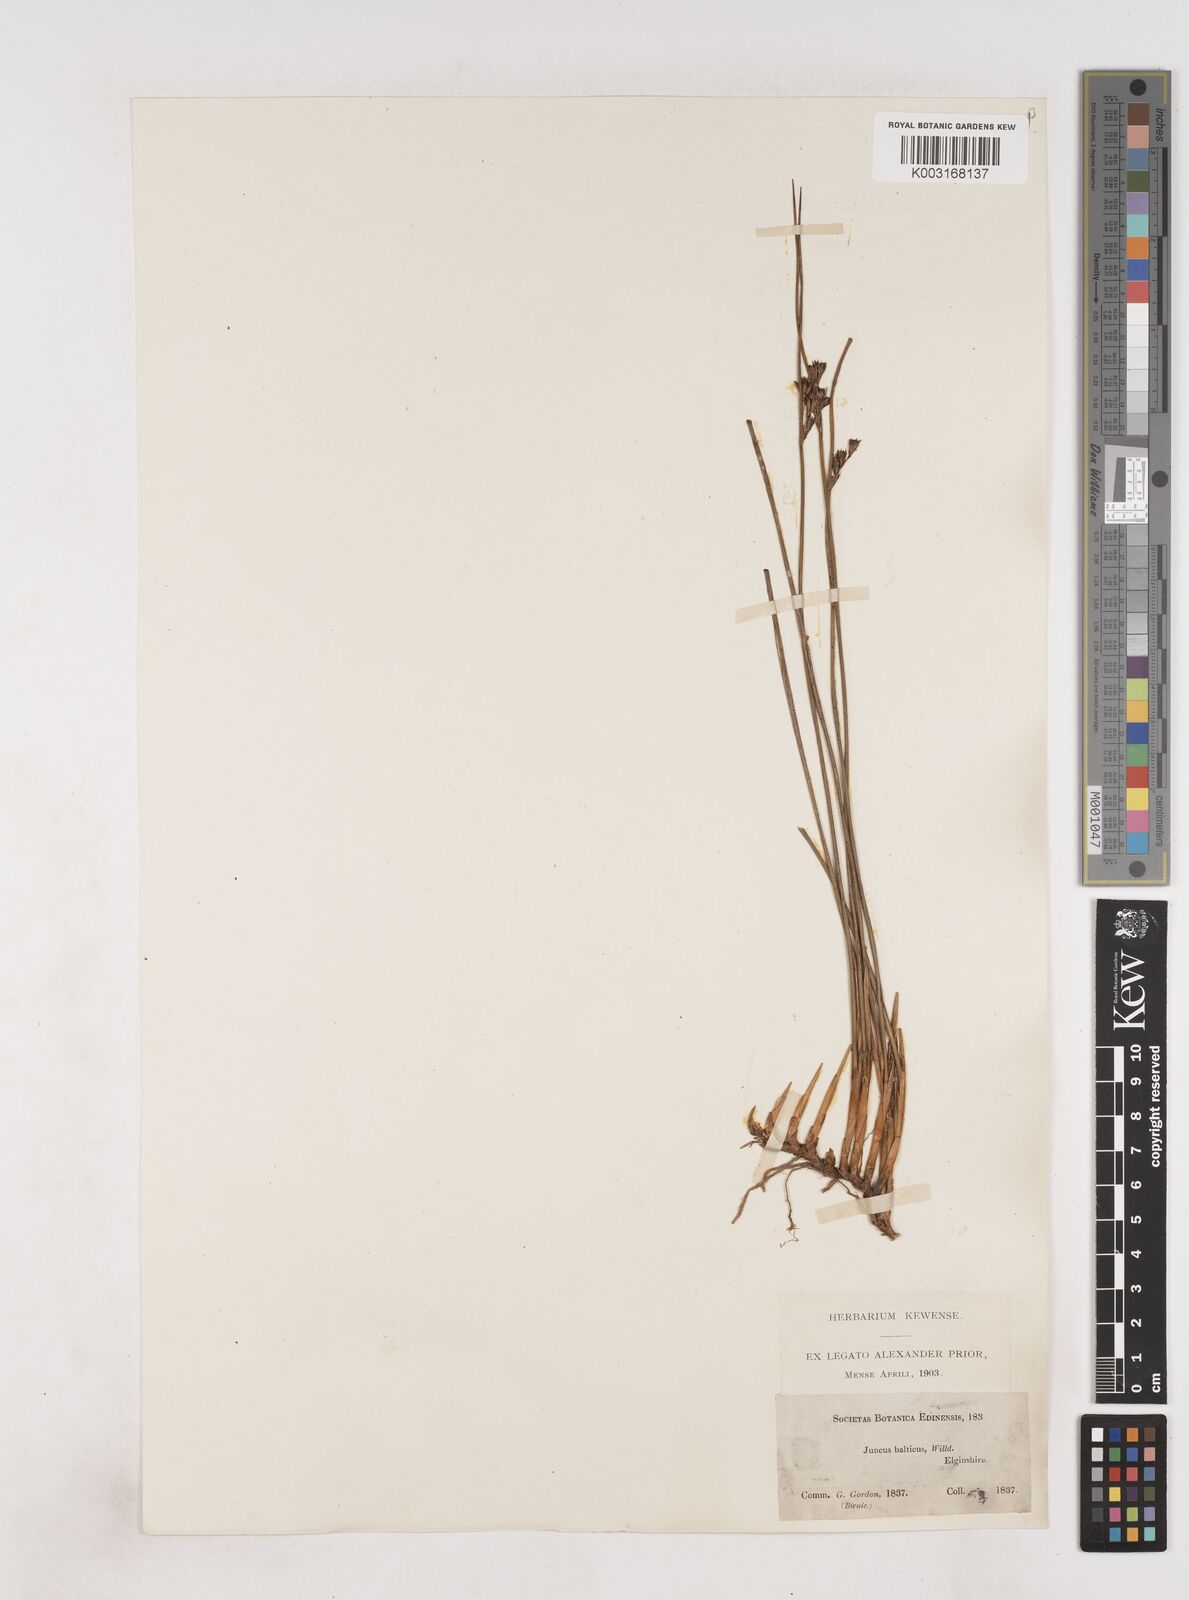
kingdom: Plantae
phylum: Tracheophyta
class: Liliopsida
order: Poales
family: Juncaceae
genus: Juncus
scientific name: Juncus balticus
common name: Baltic rush
